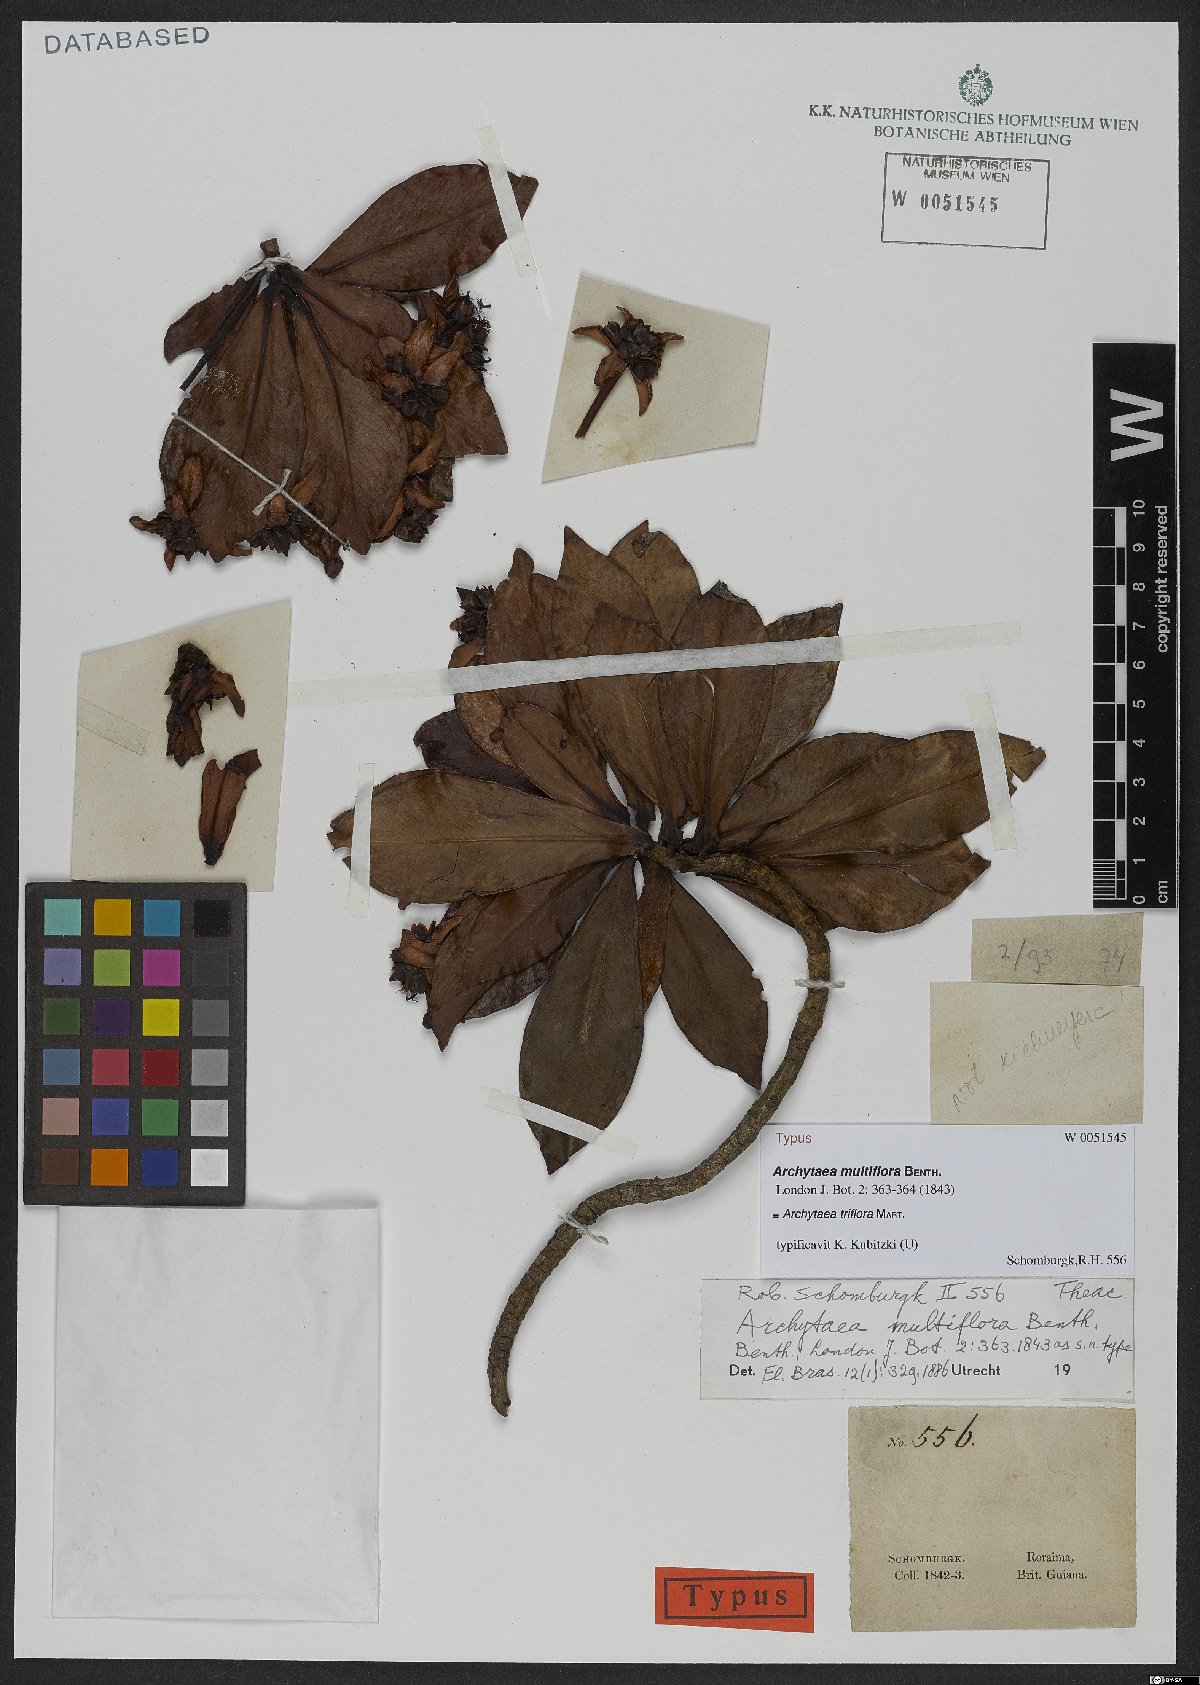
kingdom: Plantae
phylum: Tracheophyta
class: Magnoliopsida
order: Malpighiales
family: Bonnetiaceae
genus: Archytaea
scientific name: Archytaea triflora
